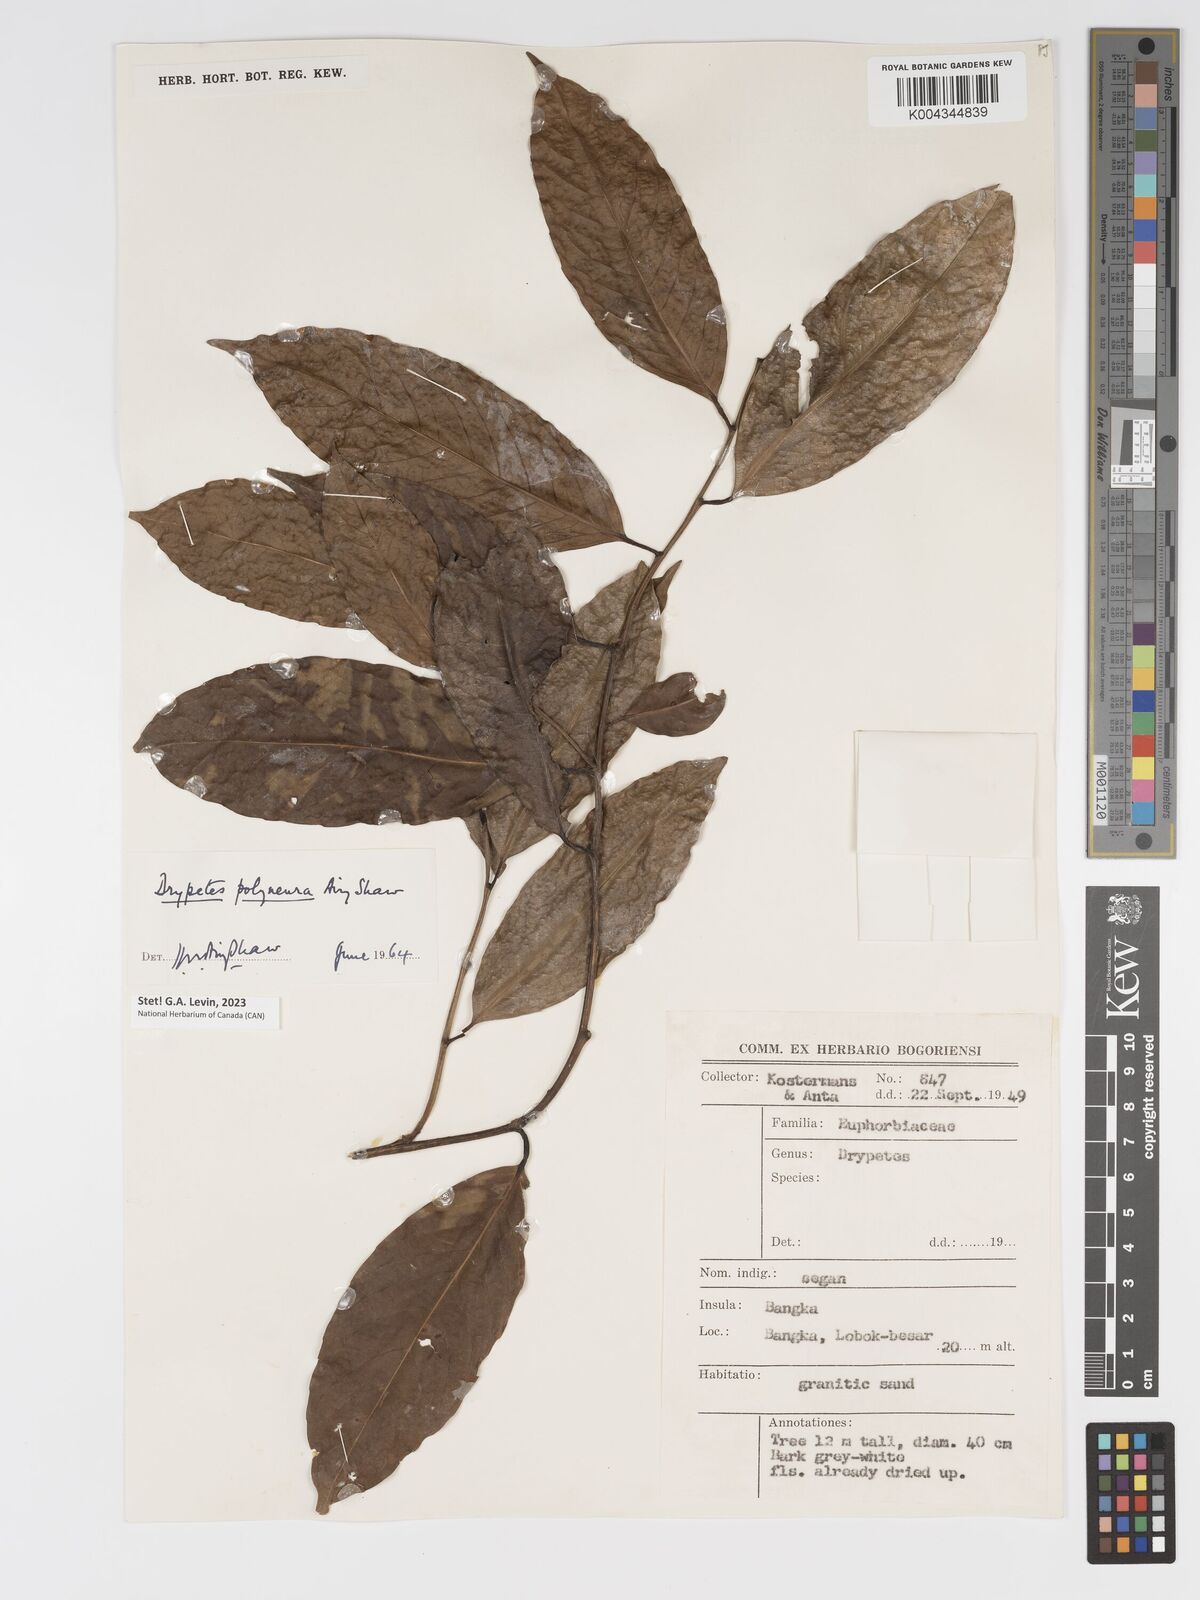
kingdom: Plantae
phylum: Tracheophyta
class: Magnoliopsida
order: Malpighiales
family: Putranjivaceae
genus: Drypetes
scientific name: Drypetes polyneura
